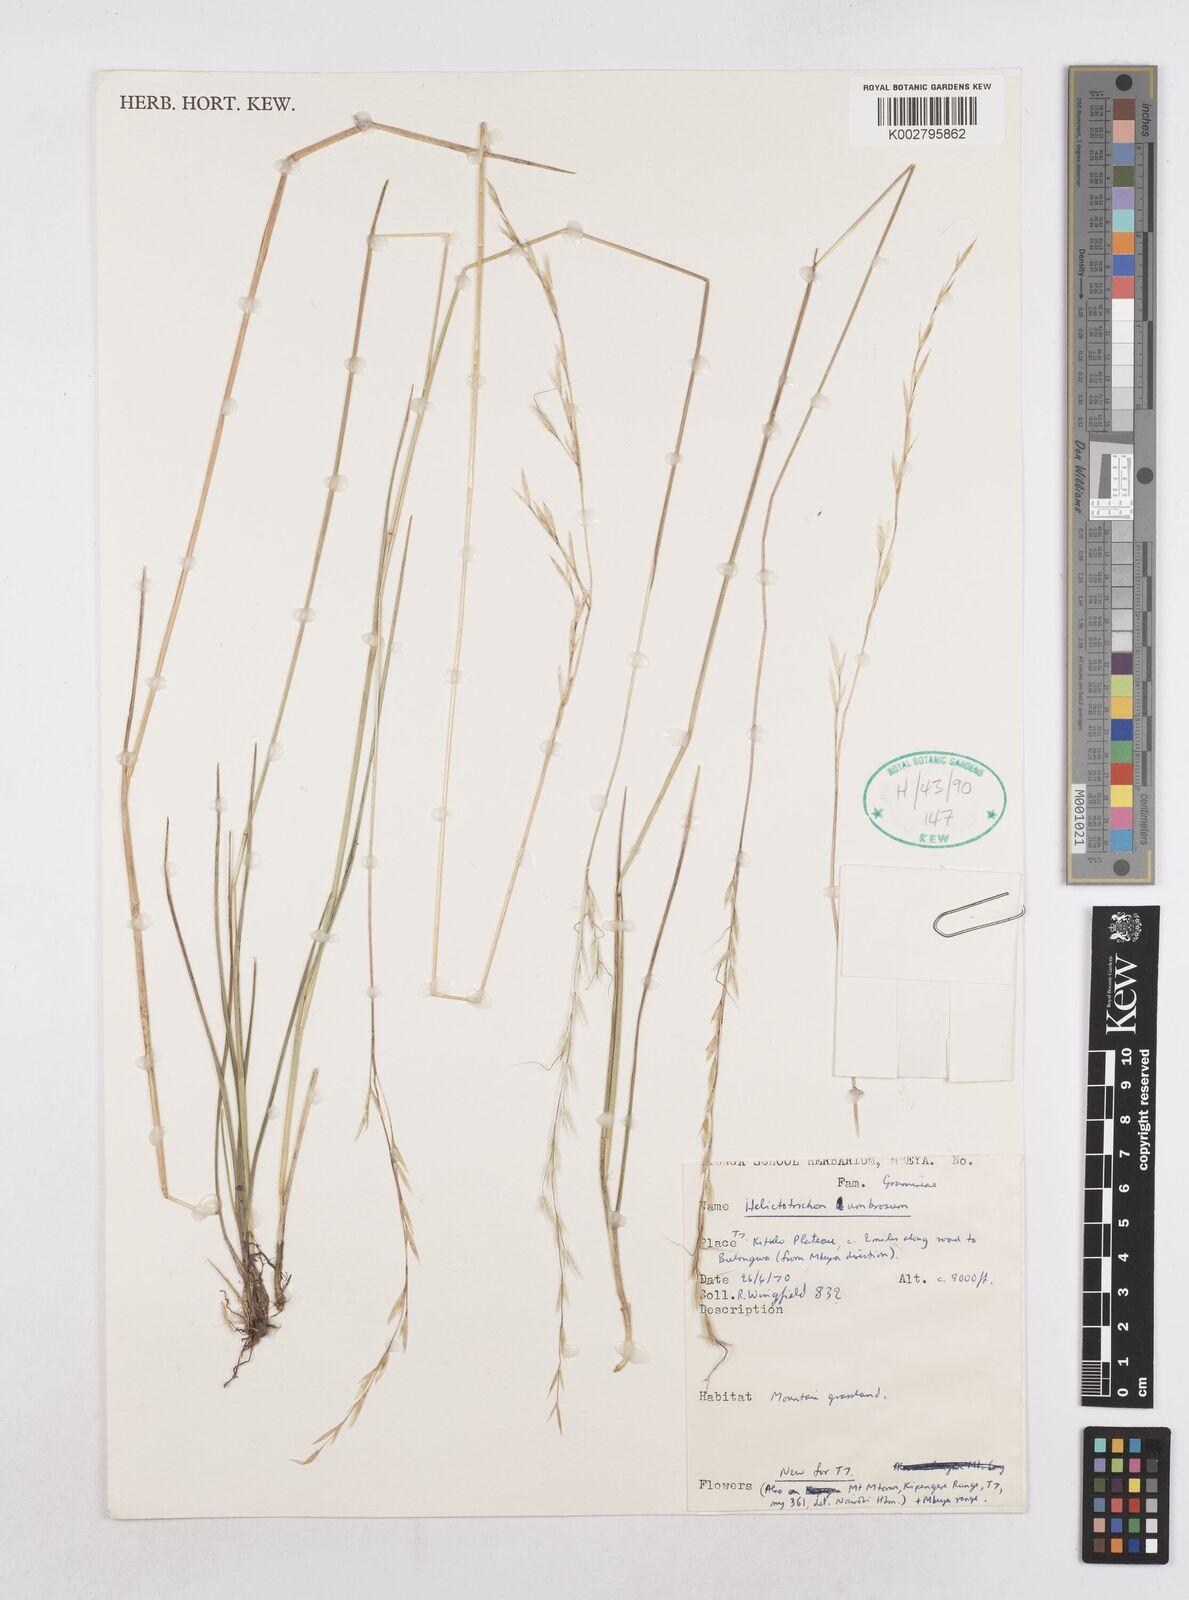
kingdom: Plantae
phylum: Tracheophyta
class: Liliopsida
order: Poales
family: Poaceae
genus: Trisetopsis
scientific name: Trisetopsis umbrosa
